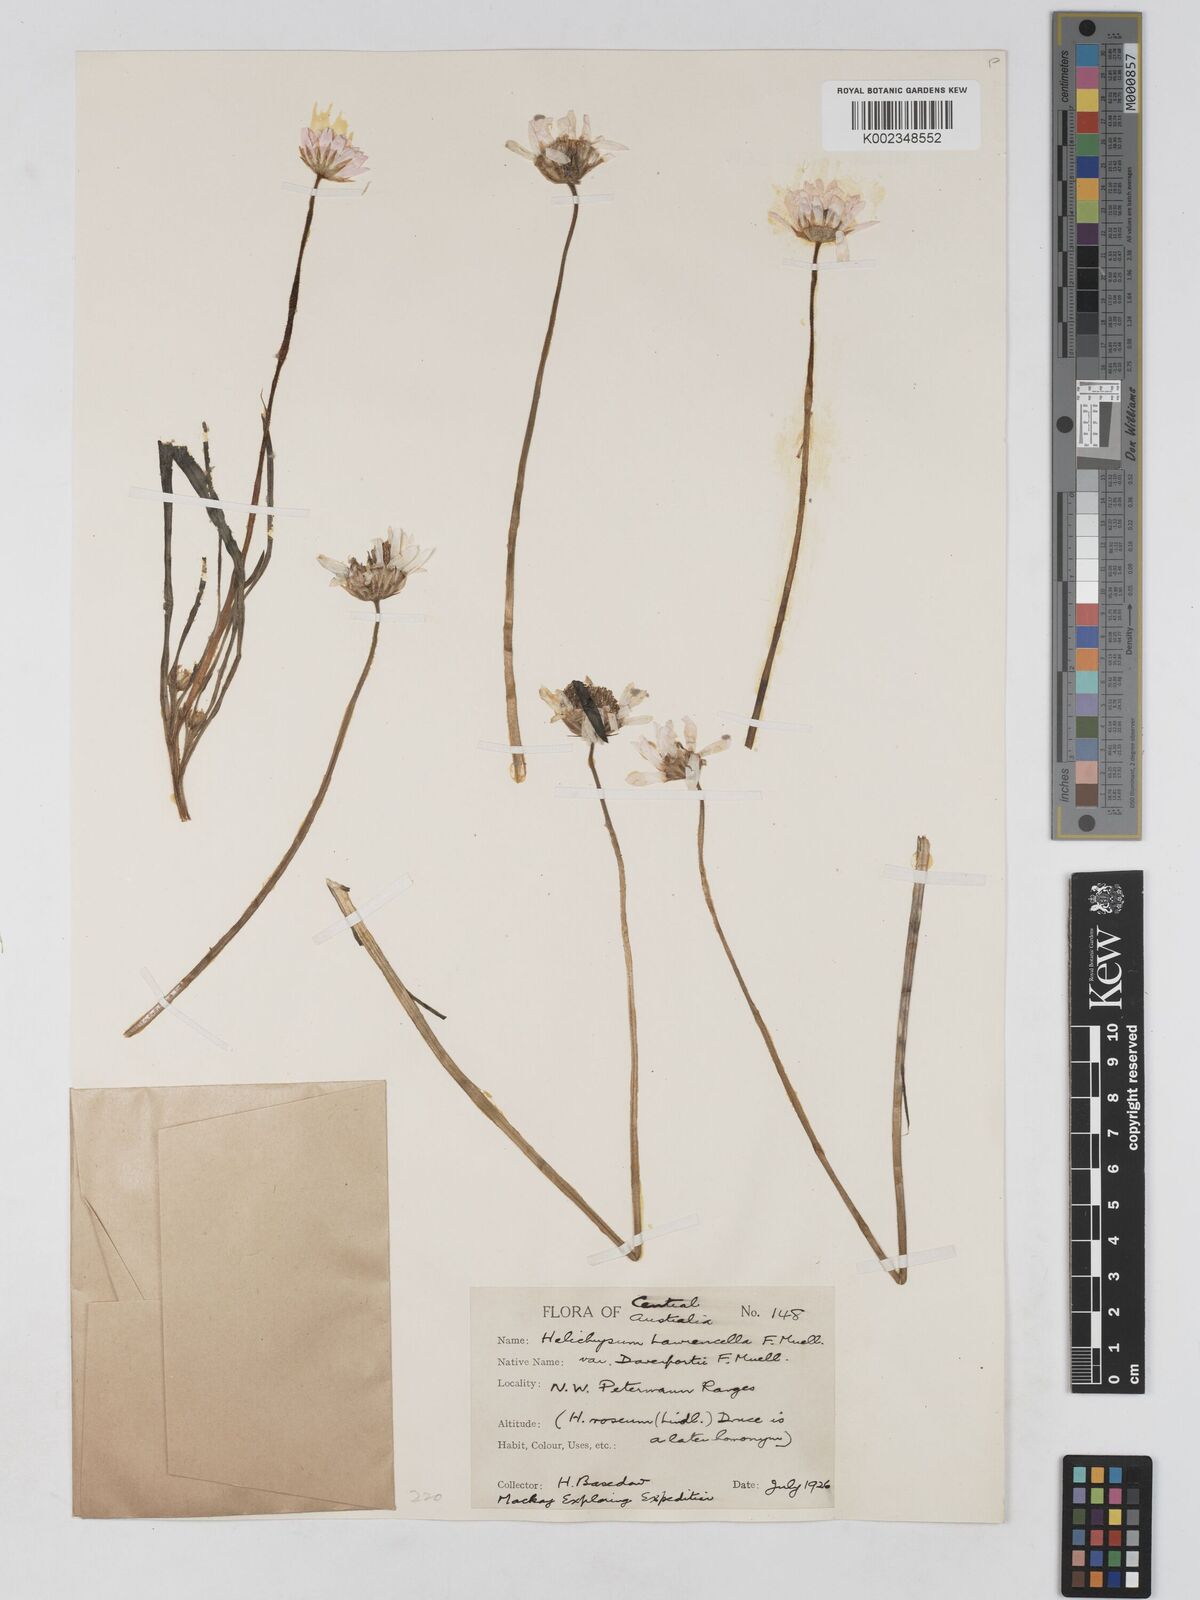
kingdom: Plantae
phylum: Tracheophyta
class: Magnoliopsida
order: Asterales
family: Asteraceae
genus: Lawrencella
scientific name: Lawrencella davenportii
